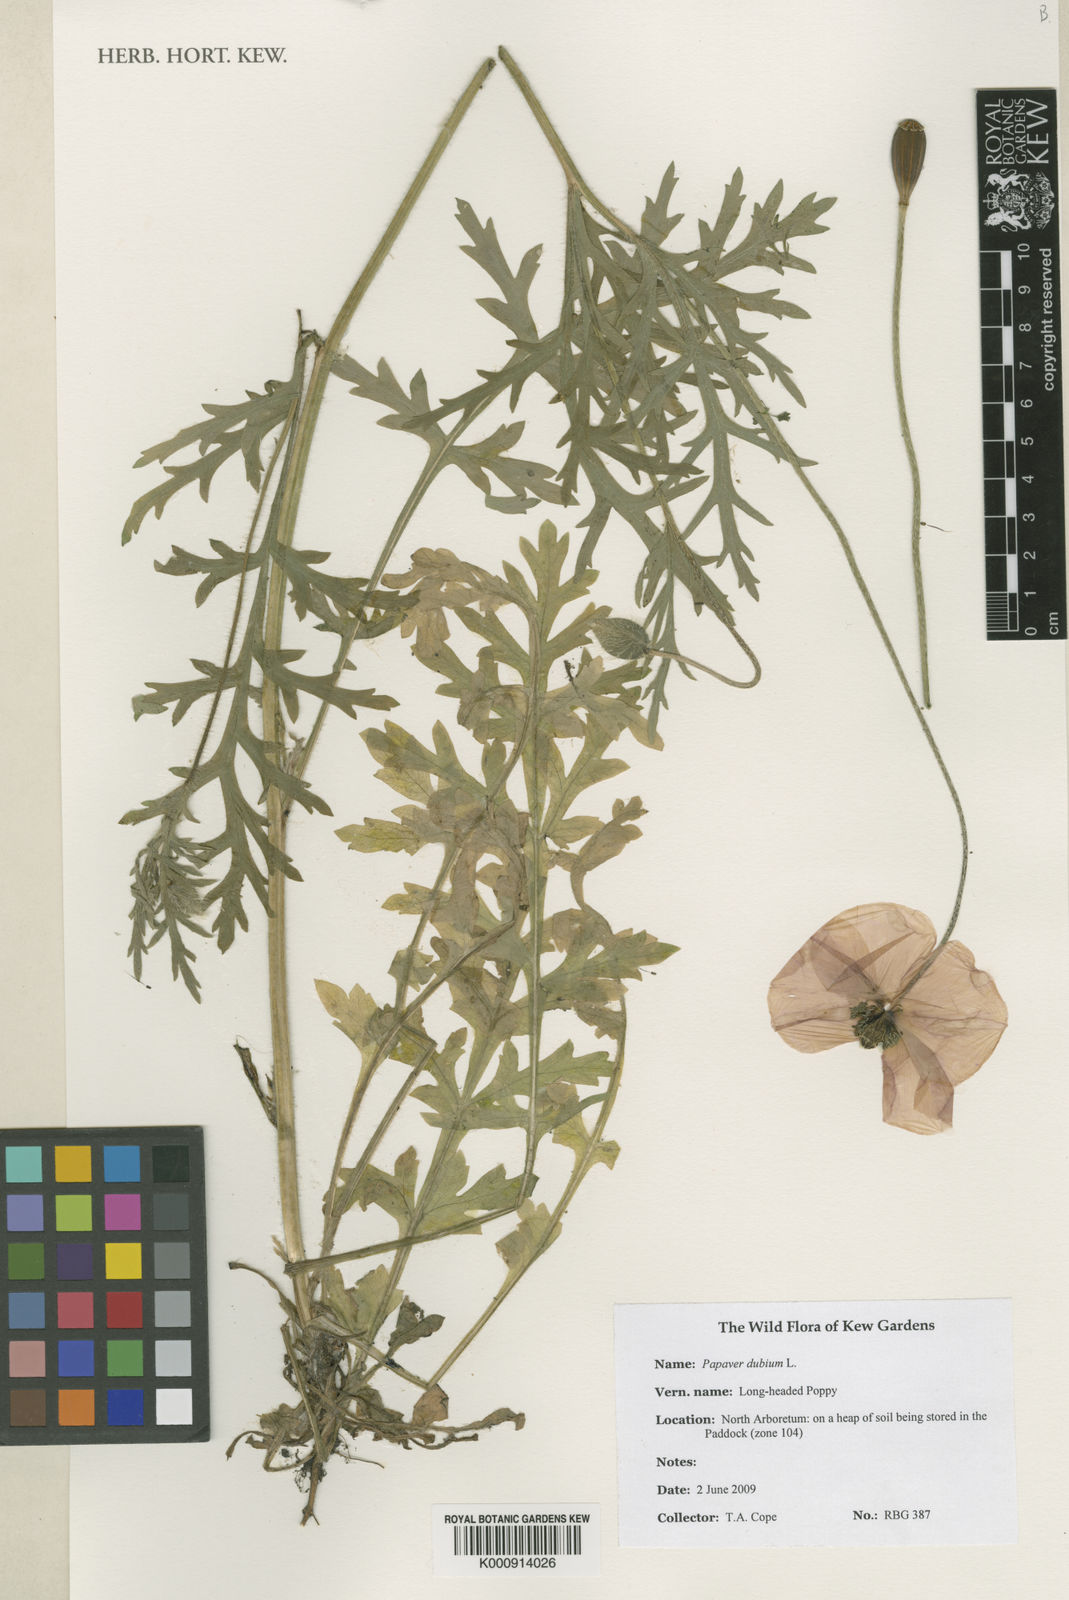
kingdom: Plantae
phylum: Tracheophyta
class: Magnoliopsida
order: Ranunculales
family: Papaveraceae
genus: Papaver
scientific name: Papaver dubium
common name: Long-headed poppy
